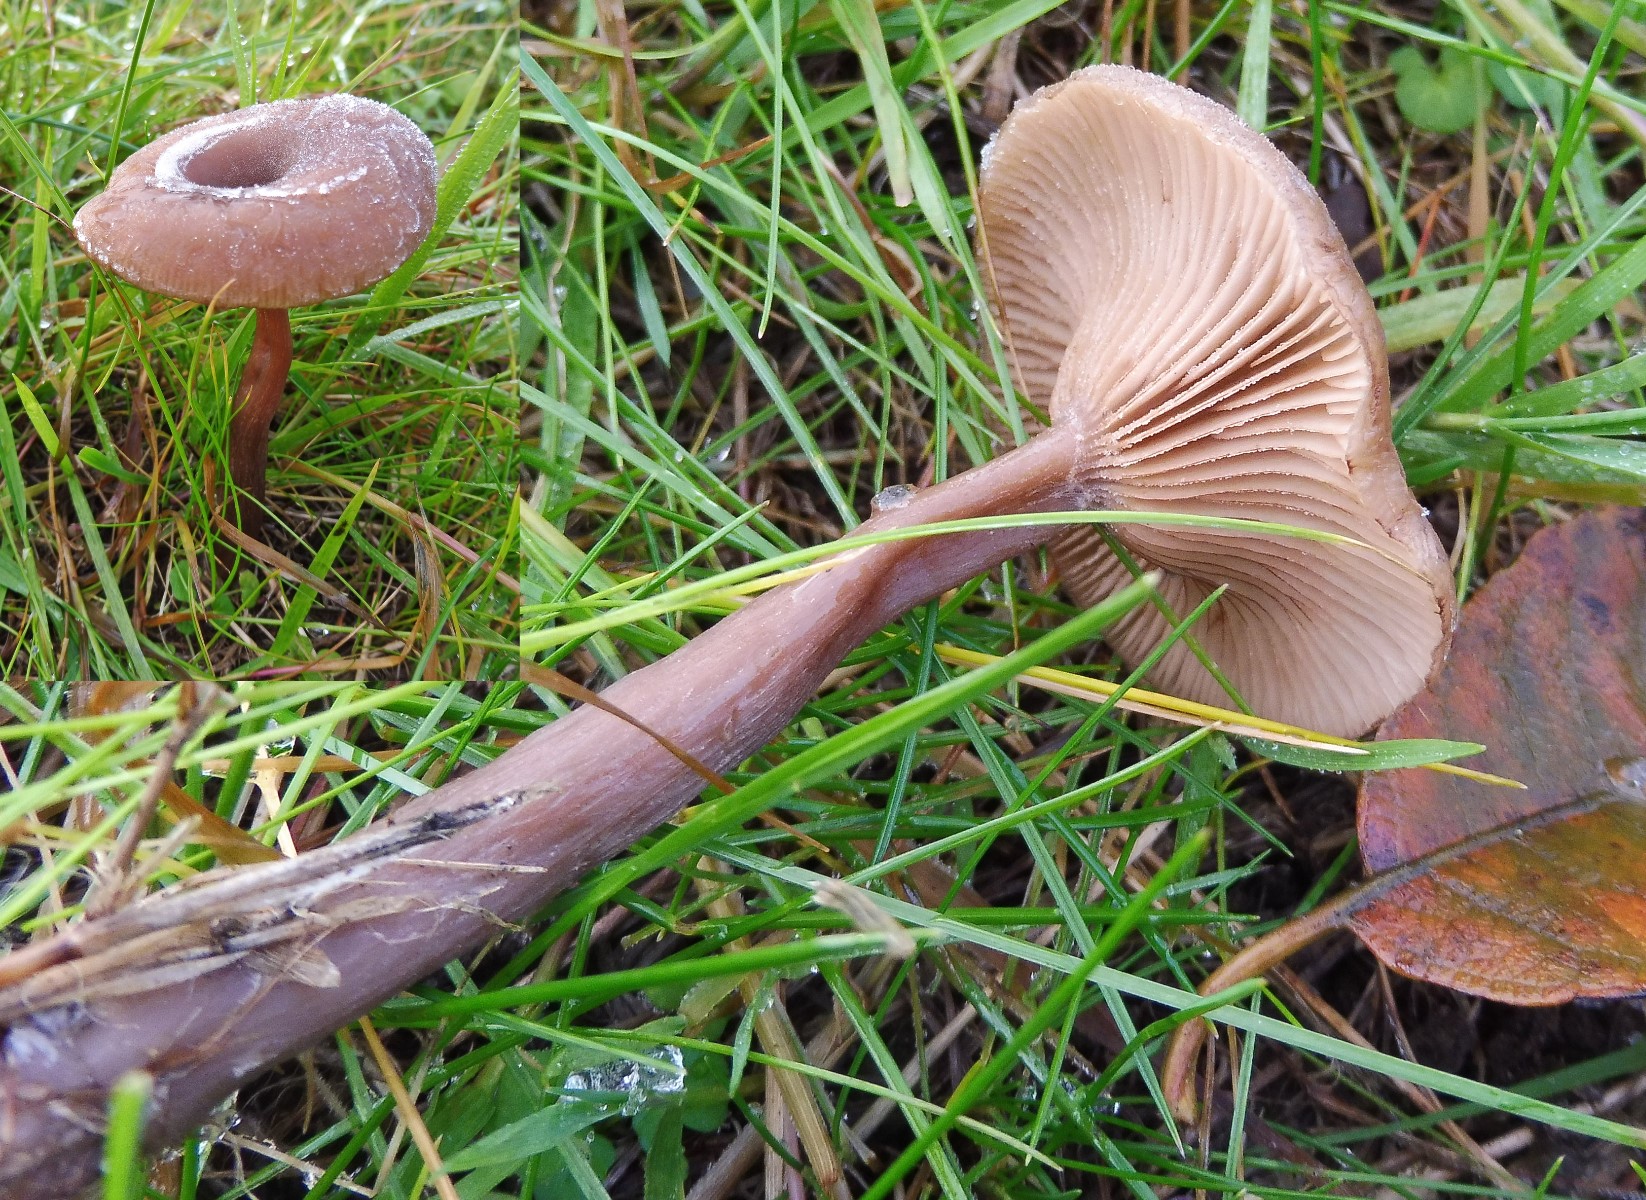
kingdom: Fungi
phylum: Basidiomycota
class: Agaricomycetes
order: Agaricales
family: Pseudoclitocybaceae
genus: Pseudoclitocybe
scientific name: Pseudoclitocybe cyathiformis
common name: almindelig bægertragthat
